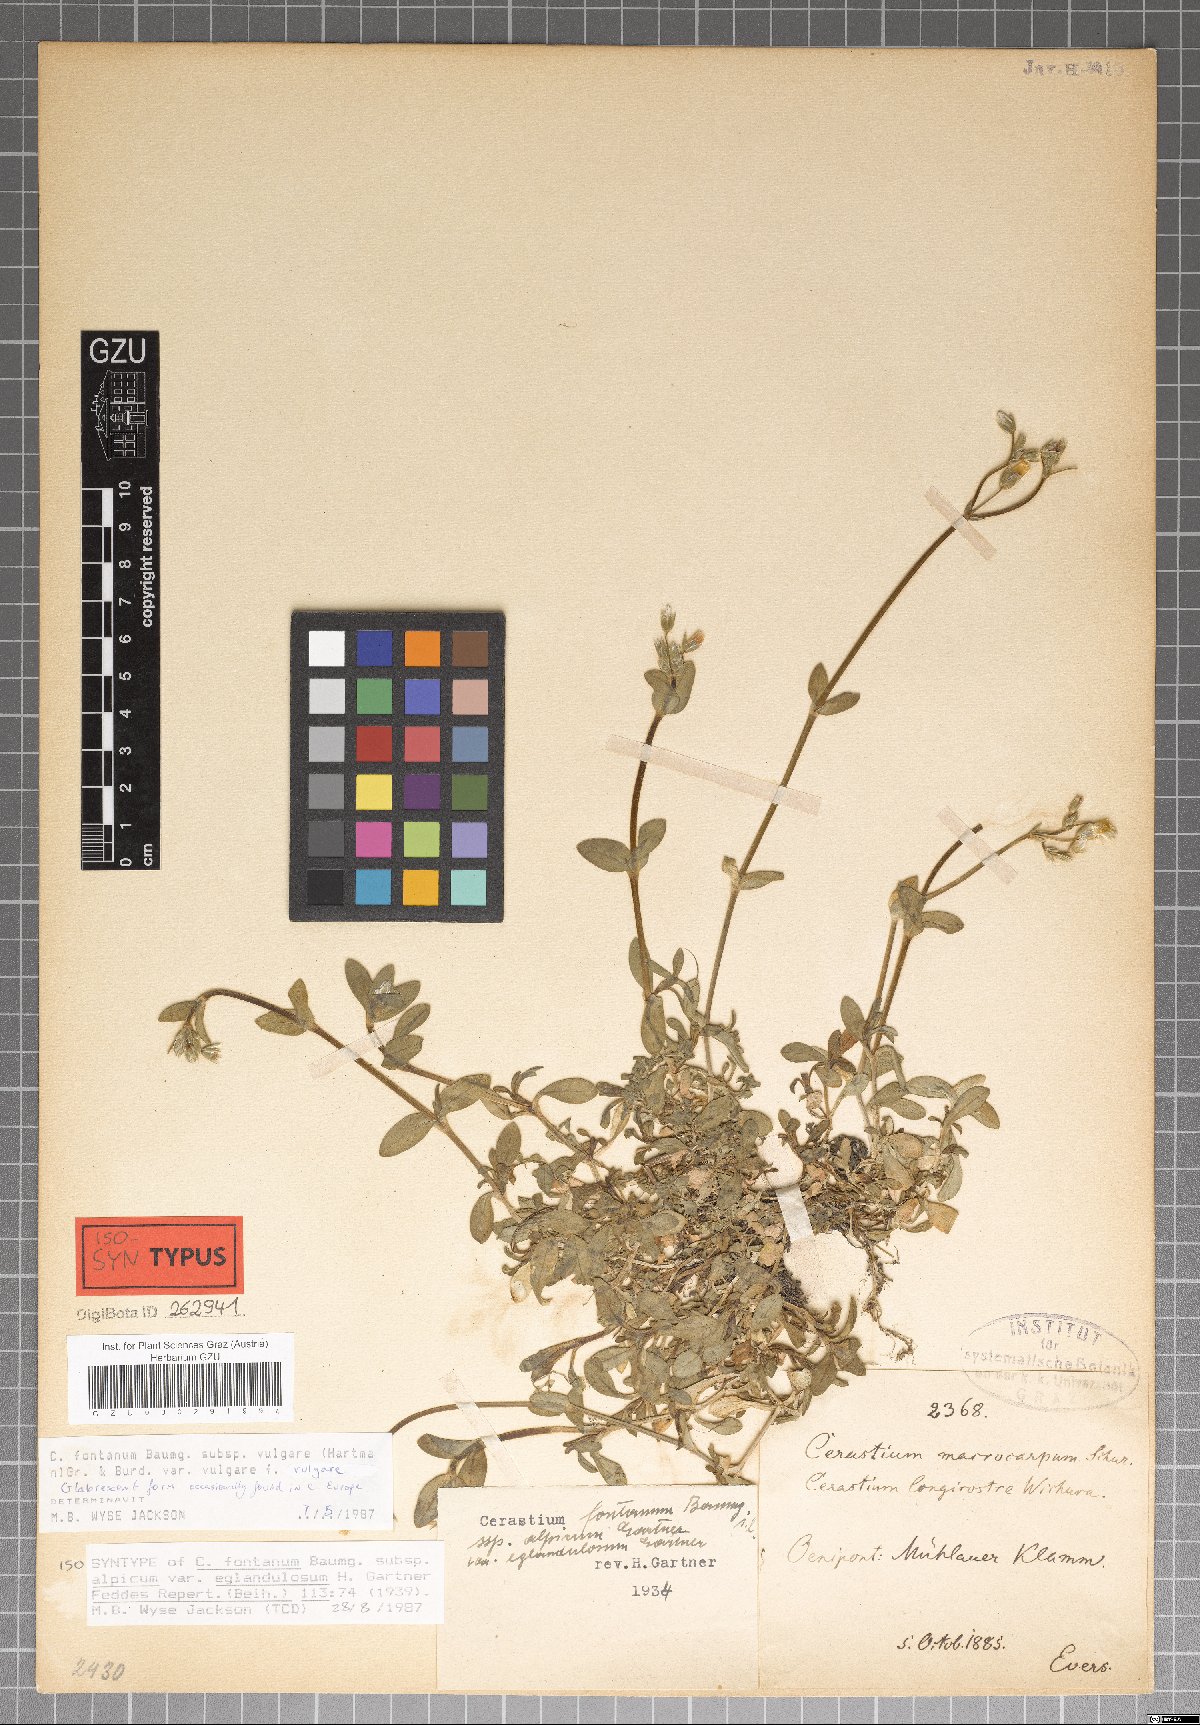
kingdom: Plantae
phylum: Tracheophyta
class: Magnoliopsida
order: Caryophyllales
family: Caryophyllaceae
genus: Cerastium
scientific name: Cerastium holosteoides
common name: Big chickweed
